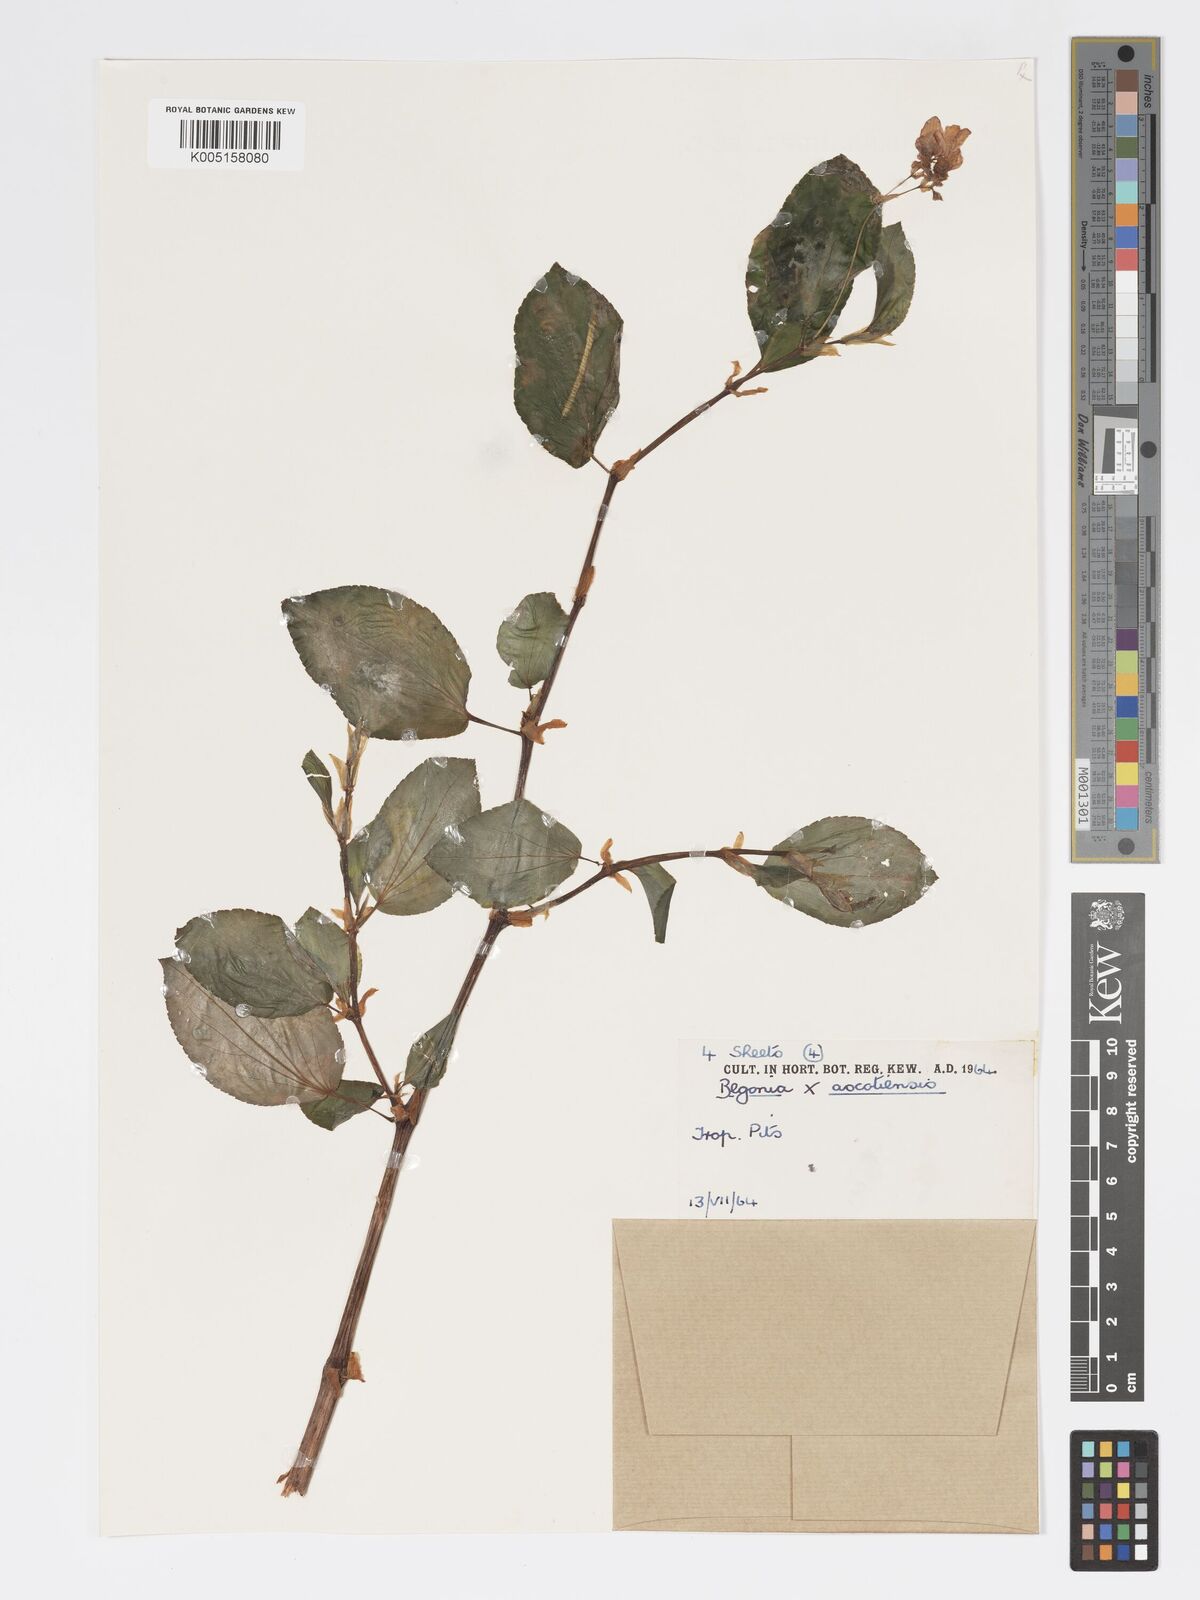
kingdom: Plantae
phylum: Tracheophyta
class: Magnoliopsida
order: Cucurbitales
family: Begoniaceae
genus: Begonia
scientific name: Begonia ascotiensis
